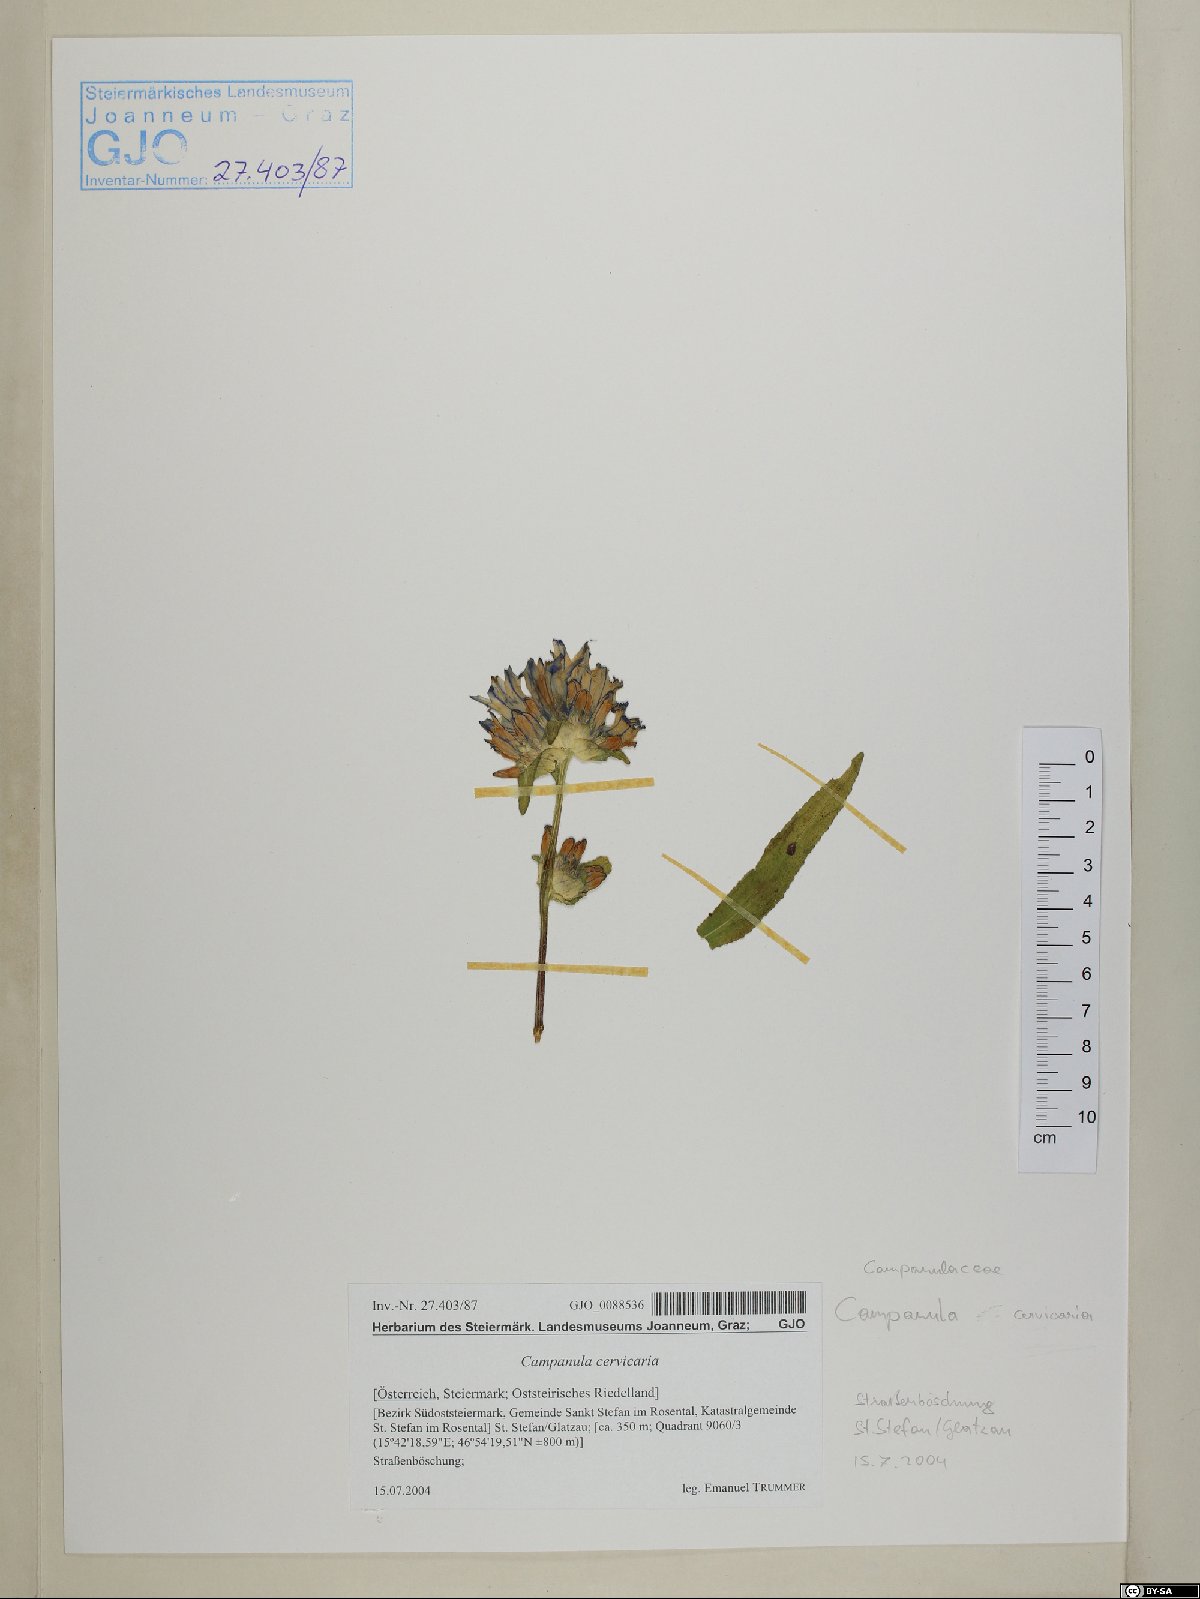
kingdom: Plantae
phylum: Tracheophyta
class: Magnoliopsida
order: Asterales
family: Campanulaceae
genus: Campanula
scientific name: Campanula cervicaria
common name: Bristly bellflower
